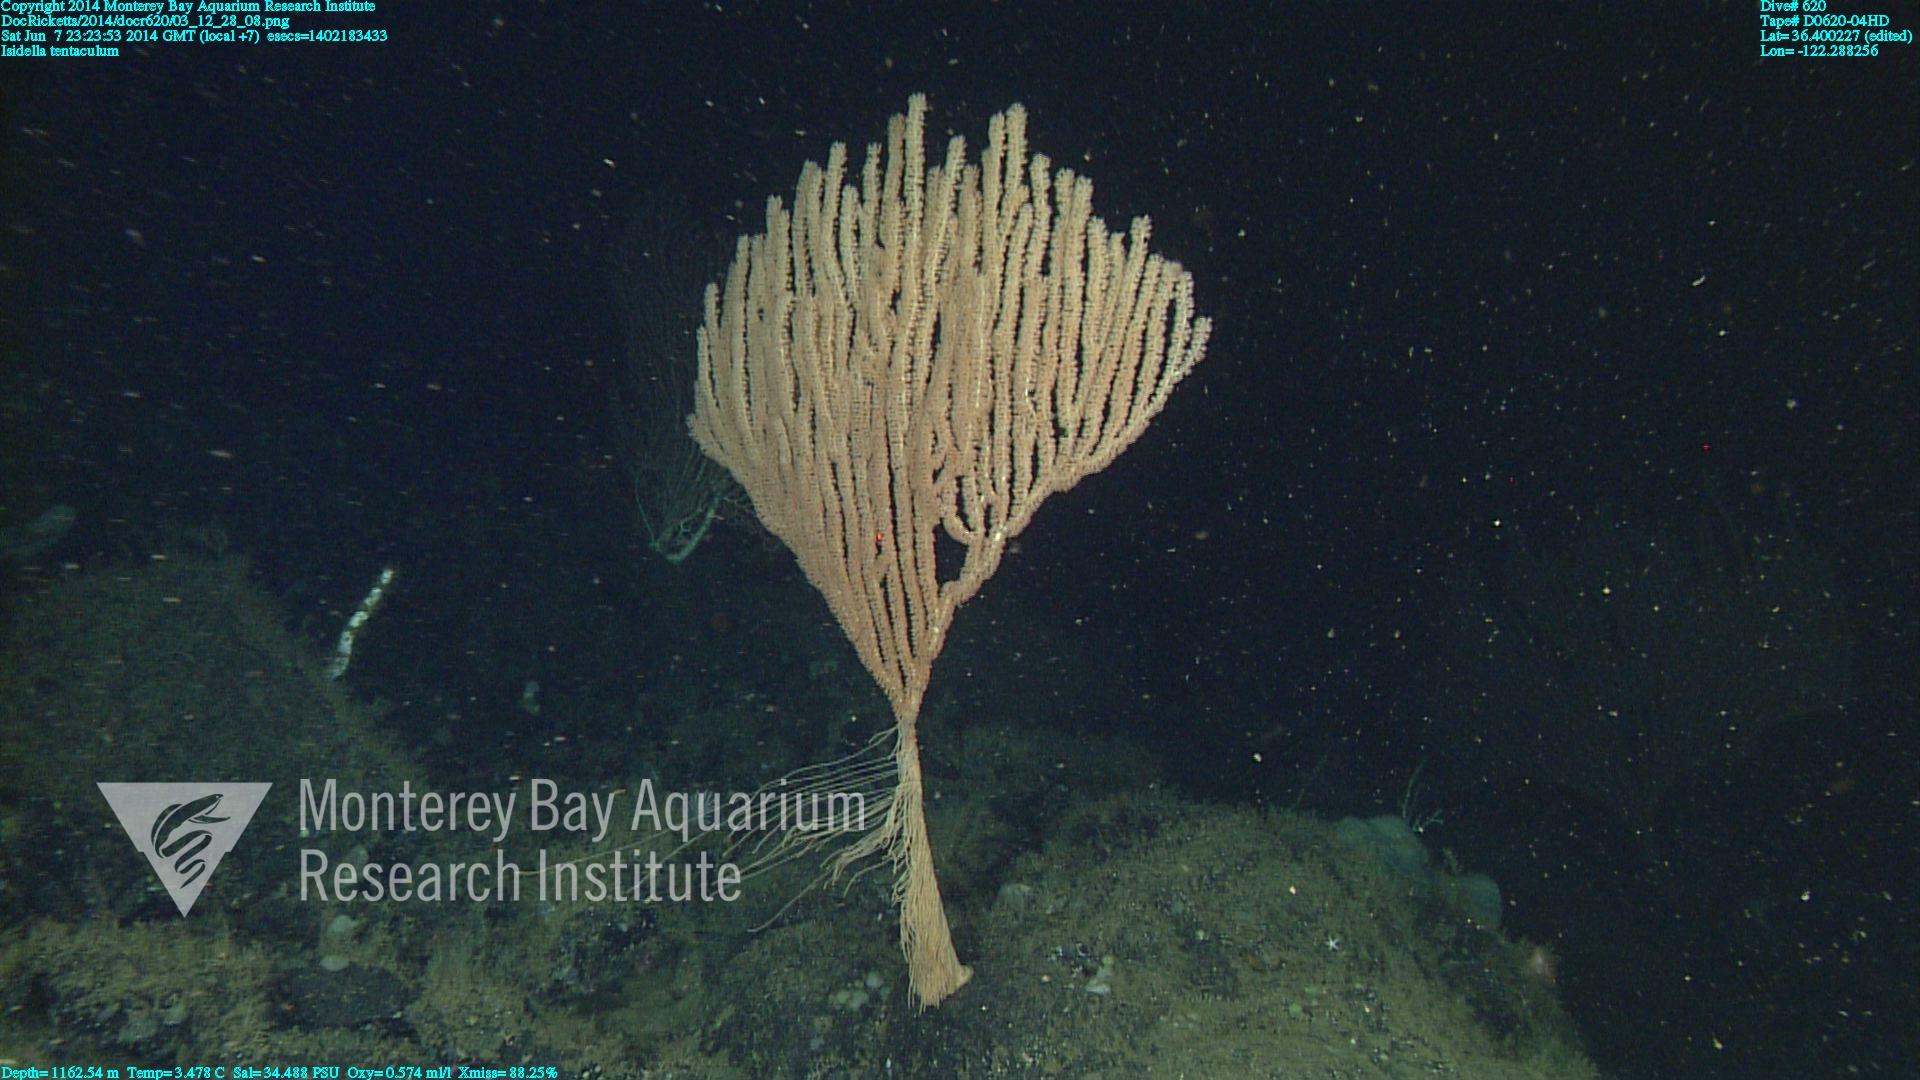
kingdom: Animalia
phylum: Cnidaria
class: Anthozoa
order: Scleralcyonacea
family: Keratoisididae
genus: Isidella
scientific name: Isidella tentaculum
